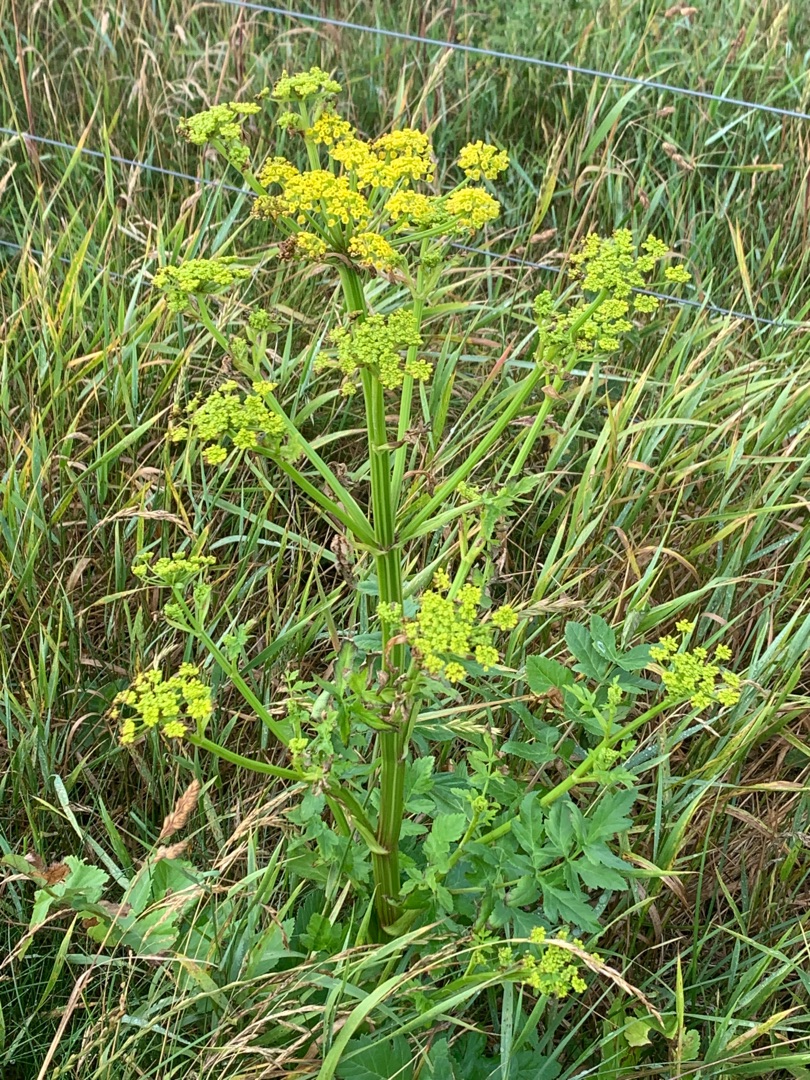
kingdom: Plantae
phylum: Tracheophyta
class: Magnoliopsida
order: Apiales
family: Apiaceae
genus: Pastinaca
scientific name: Pastinaca sativa
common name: Have-pastinak
